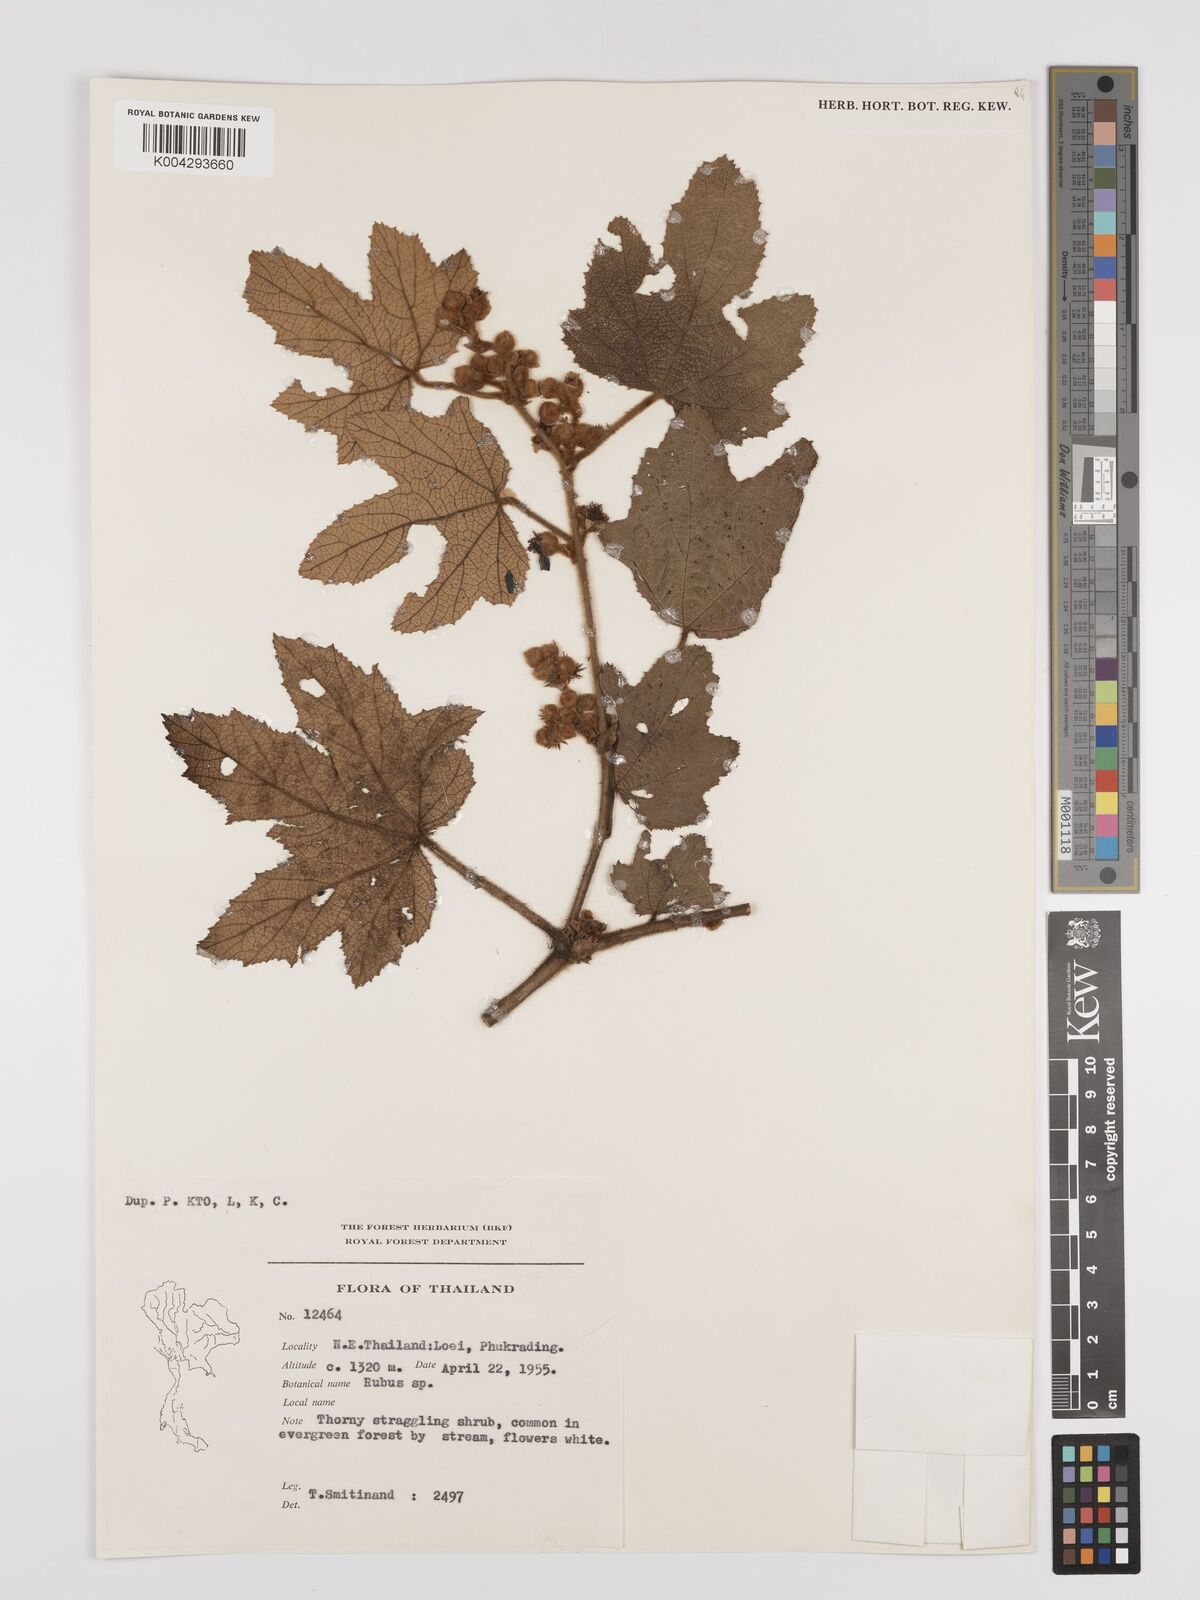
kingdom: Plantae
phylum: Tracheophyta
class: Magnoliopsida
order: Rosales
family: Rosaceae
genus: Rubus
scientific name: Rubus chevalieri
